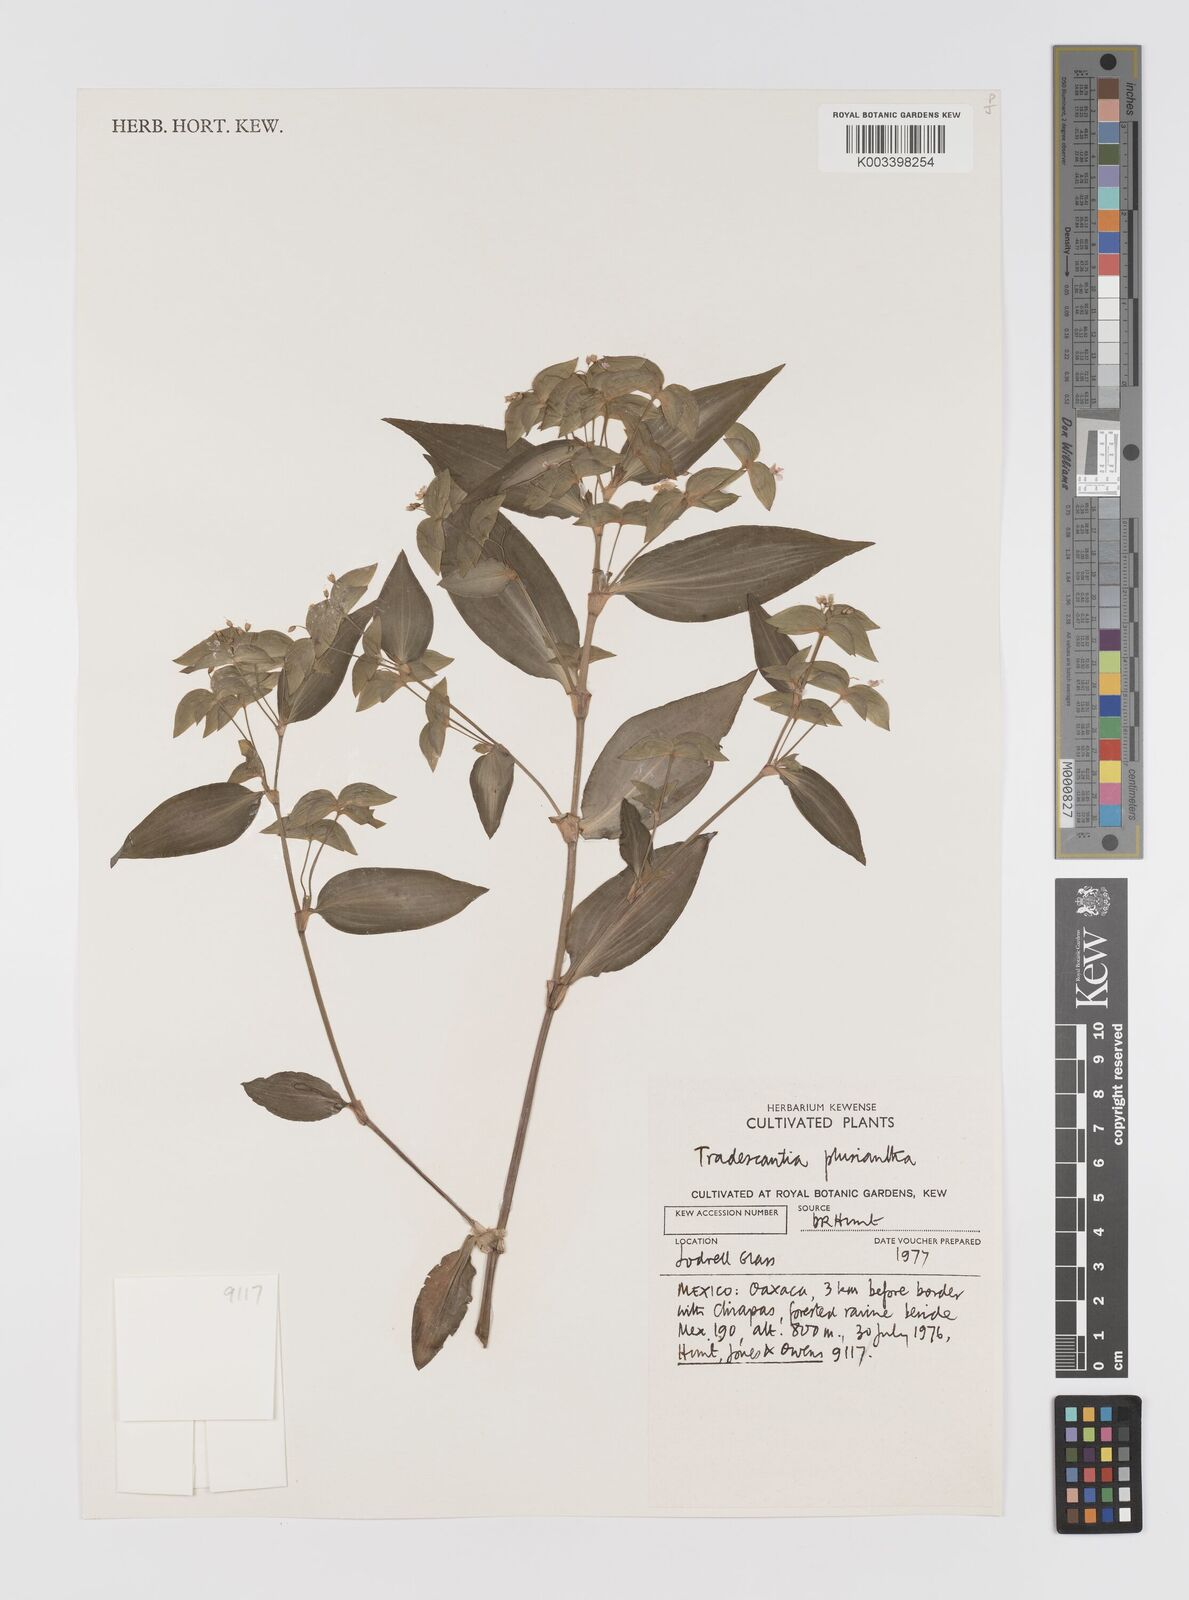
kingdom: Plantae
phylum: Tracheophyta
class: Liliopsida
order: Commelinales
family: Commelinaceae
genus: Tradescantia
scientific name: Tradescantia plusiantha
